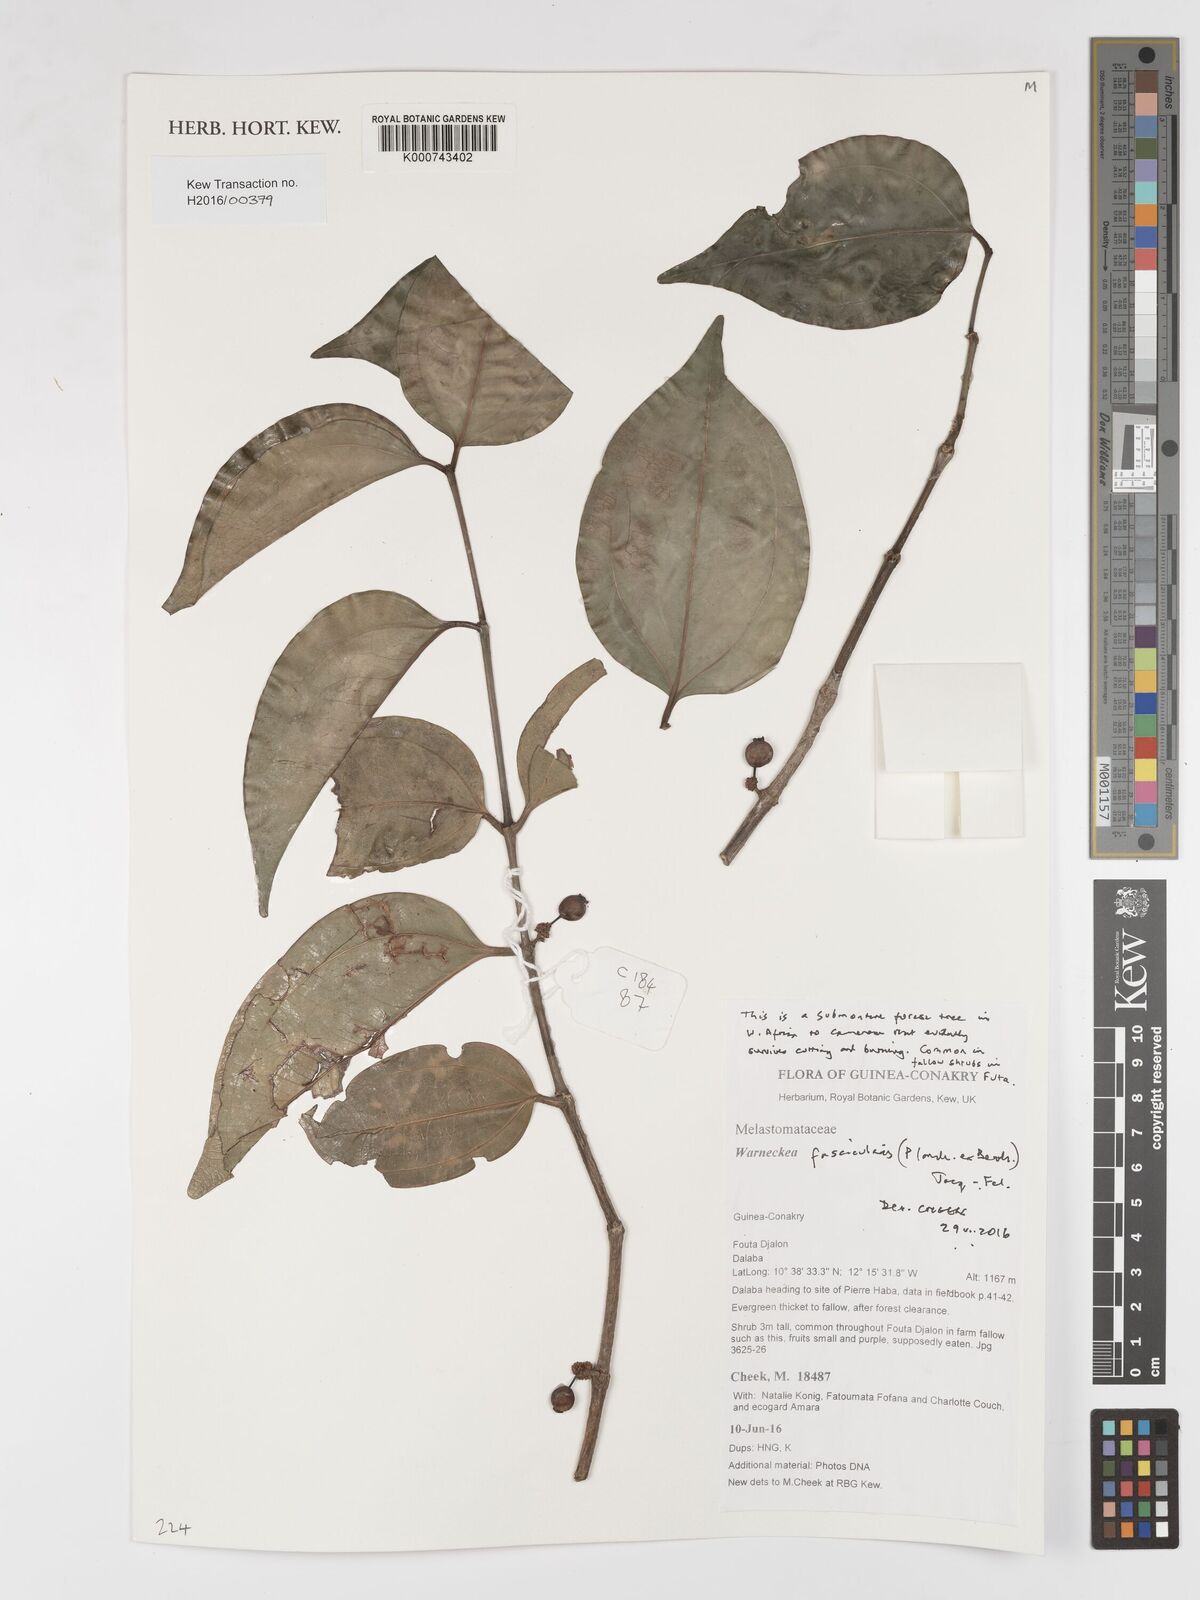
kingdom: Plantae
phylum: Tracheophyta
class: Magnoliopsida
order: Myrtales
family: Melastomataceae
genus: Warneckea
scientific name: Warneckea fascicularis
